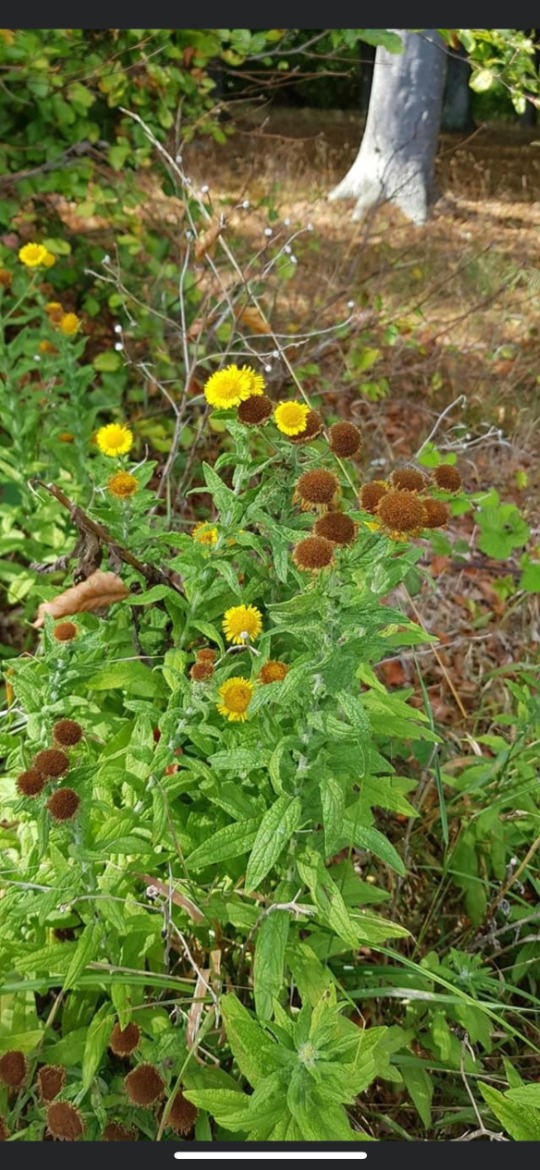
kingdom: Plantae
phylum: Tracheophyta
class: Magnoliopsida
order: Asterales
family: Asteraceae
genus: Pulicaria
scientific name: Pulicaria dysenterica
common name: Strand-loppeurt
